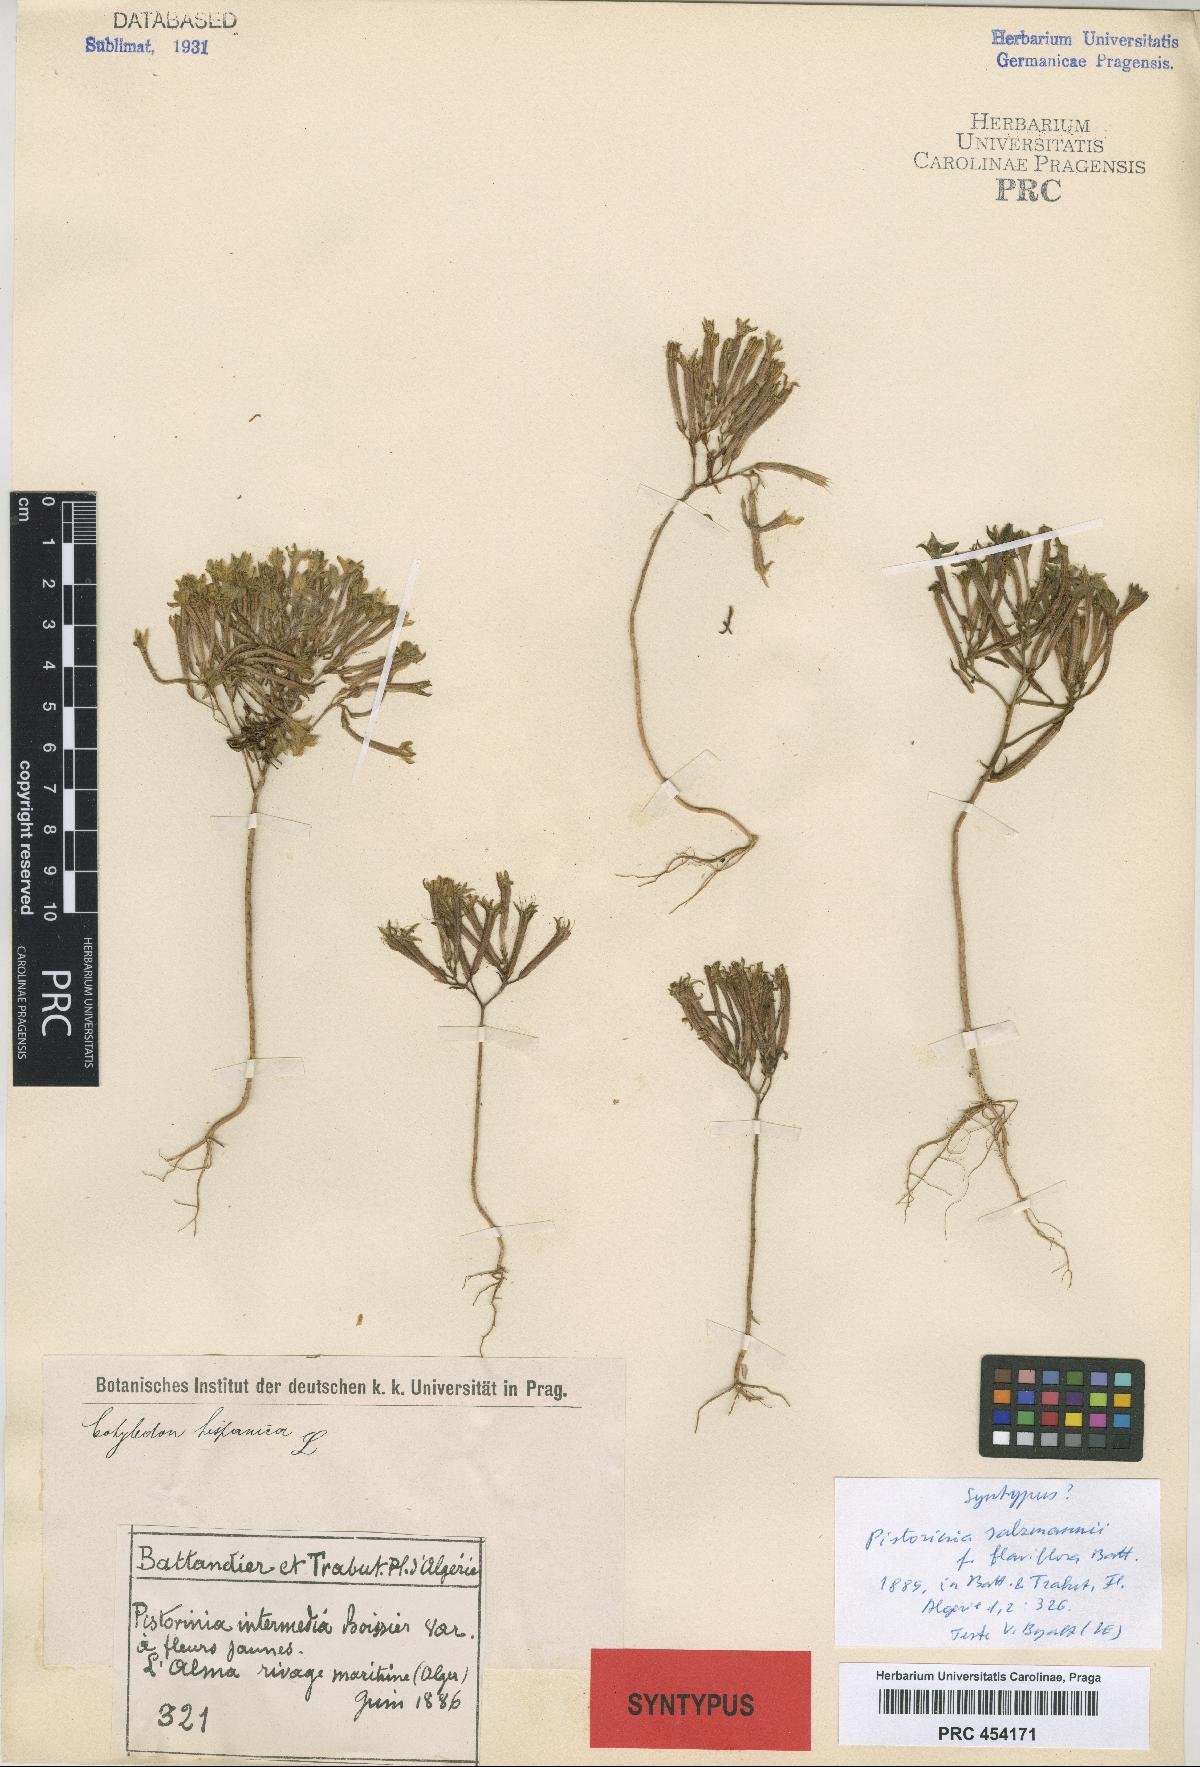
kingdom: Plantae
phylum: Tracheophyta
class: Magnoliopsida
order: Saxifragales
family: Crassulaceae
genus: Pistorinia
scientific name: Pistorinia breviflora
